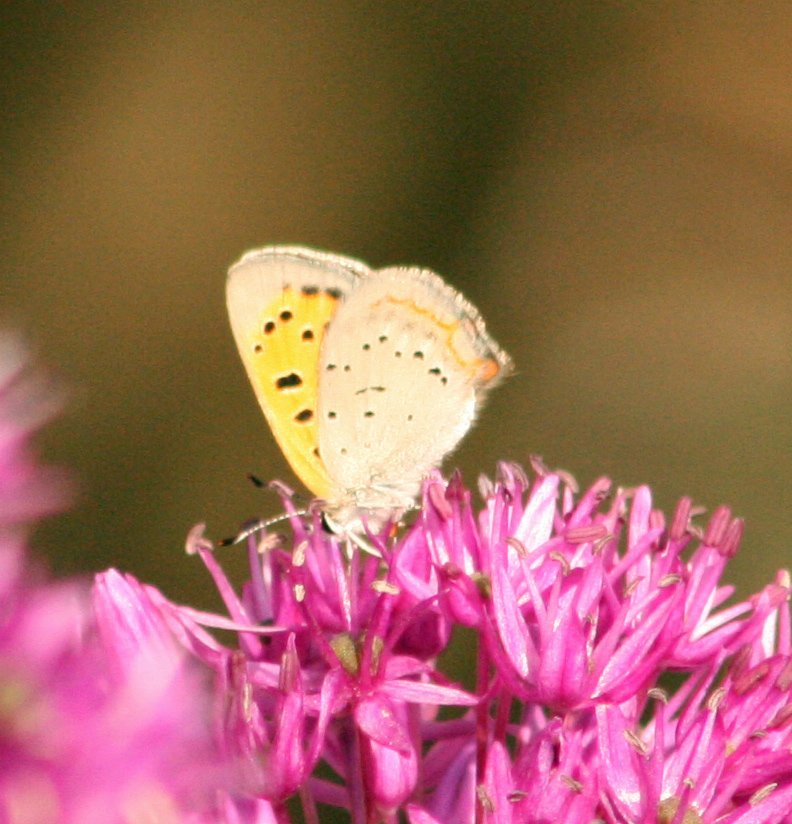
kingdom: Animalia
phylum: Arthropoda
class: Insecta
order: Lepidoptera
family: Lycaenidae
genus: Lycaena
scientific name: Lycaena phlaeas
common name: American Copper
